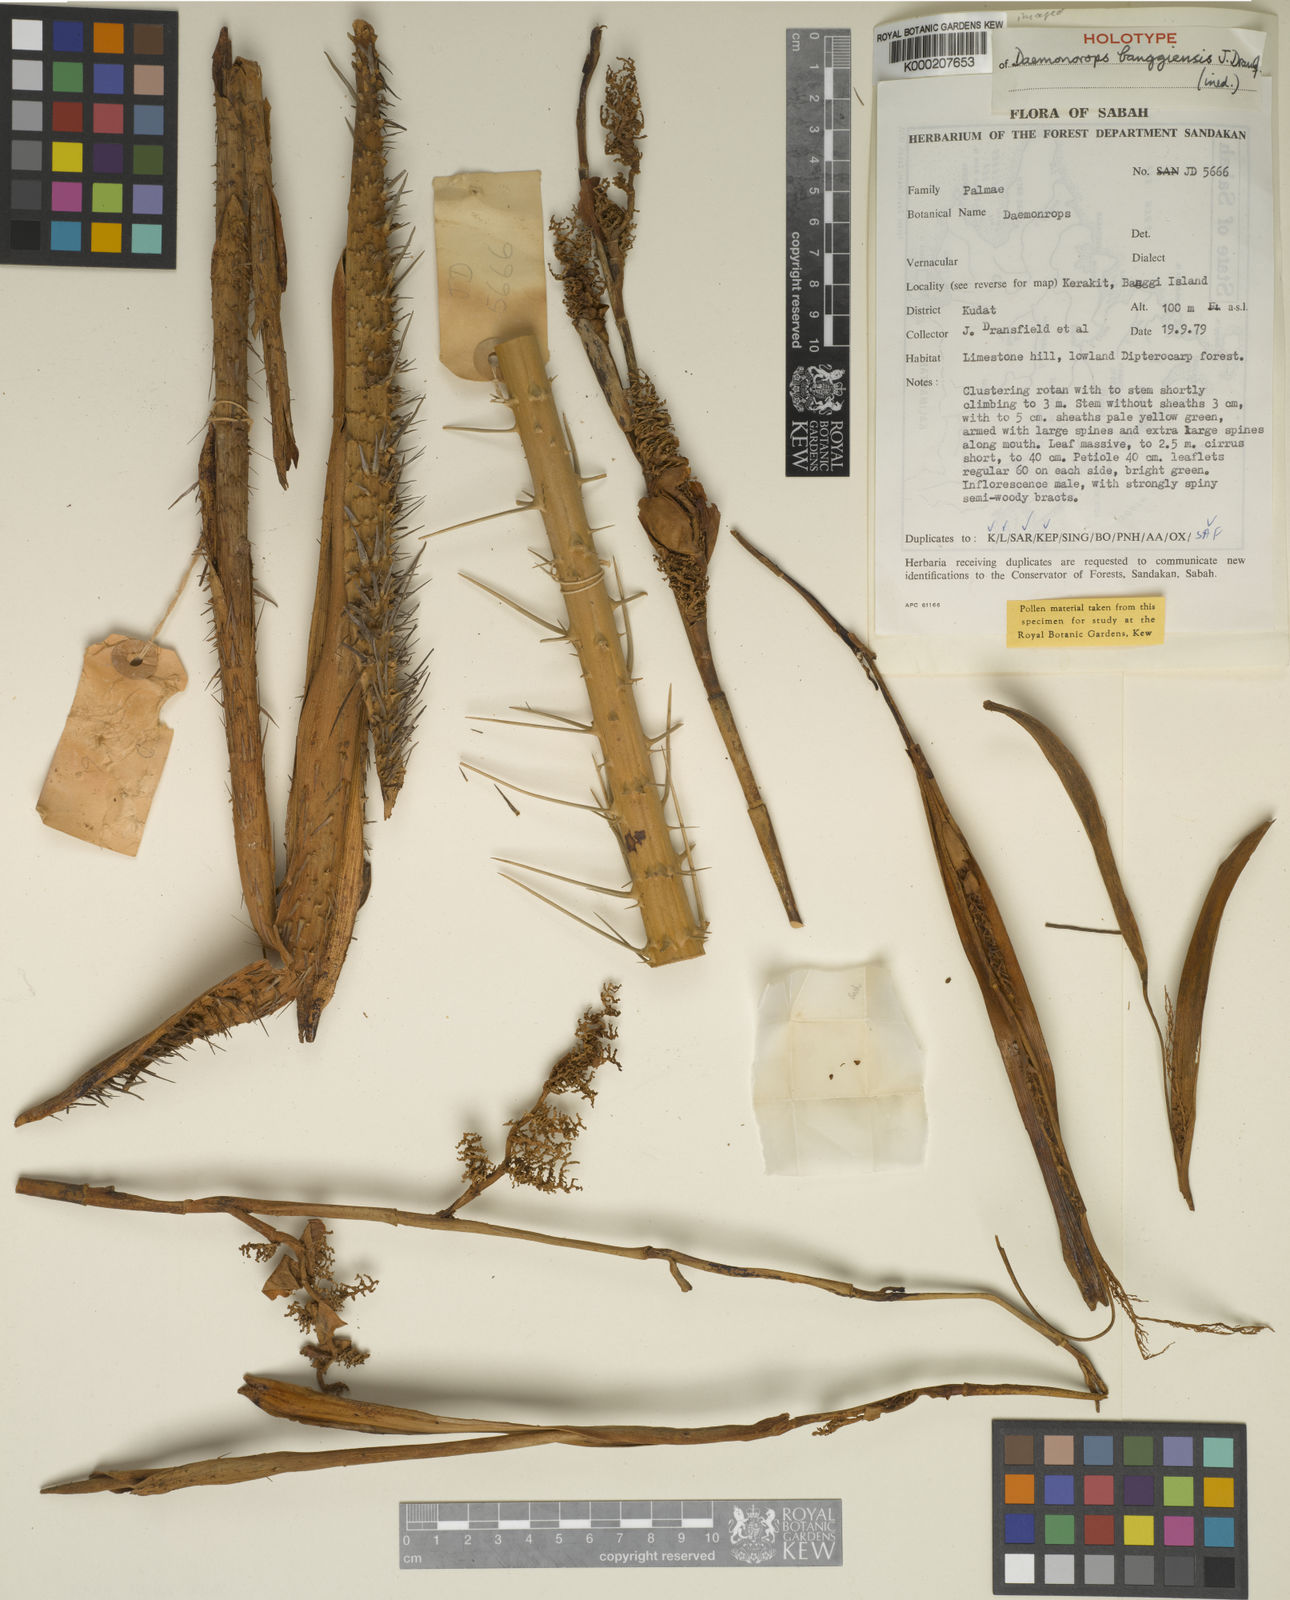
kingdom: Plantae
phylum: Tracheophyta
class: Liliopsida
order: Arecales
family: Arecaceae
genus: Calamus
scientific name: Calamus banggiensis
